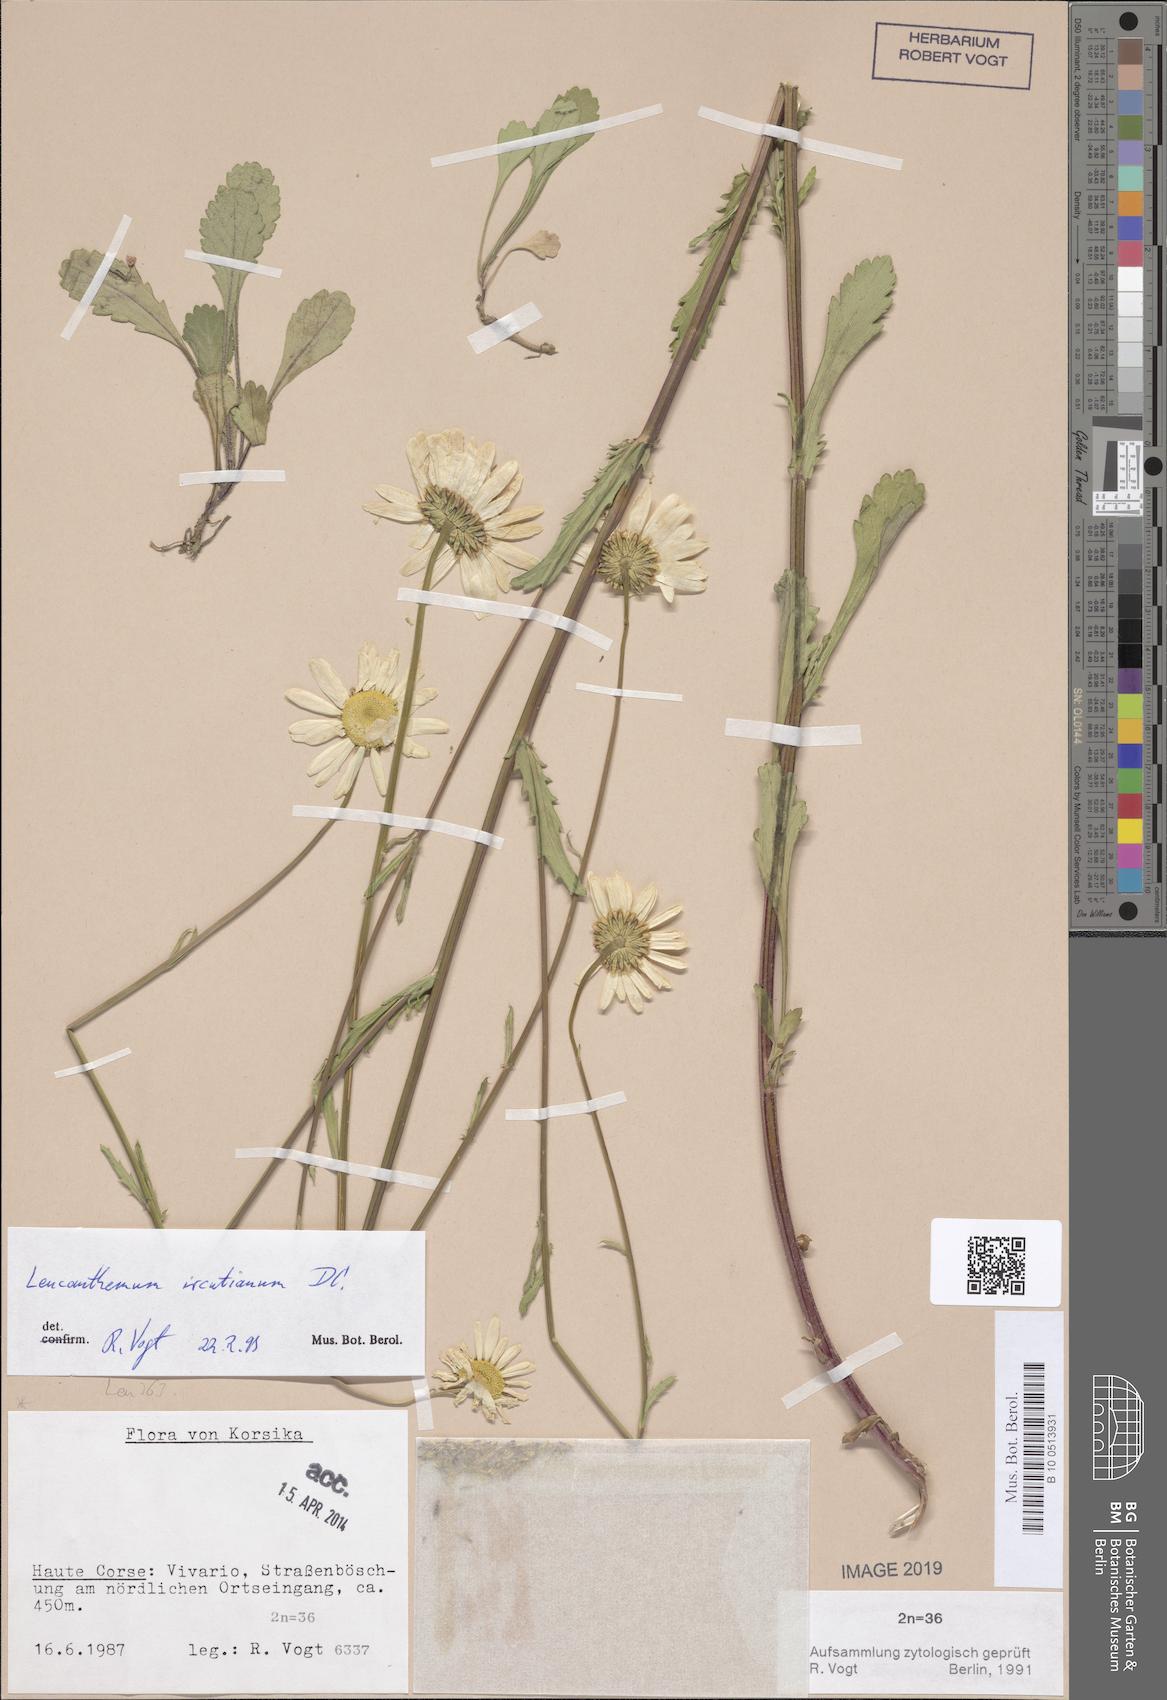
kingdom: Plantae
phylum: Tracheophyta
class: Magnoliopsida
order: Asterales
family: Asteraceae
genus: Leucanthemum
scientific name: Leucanthemum ircutianum
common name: Daisy
